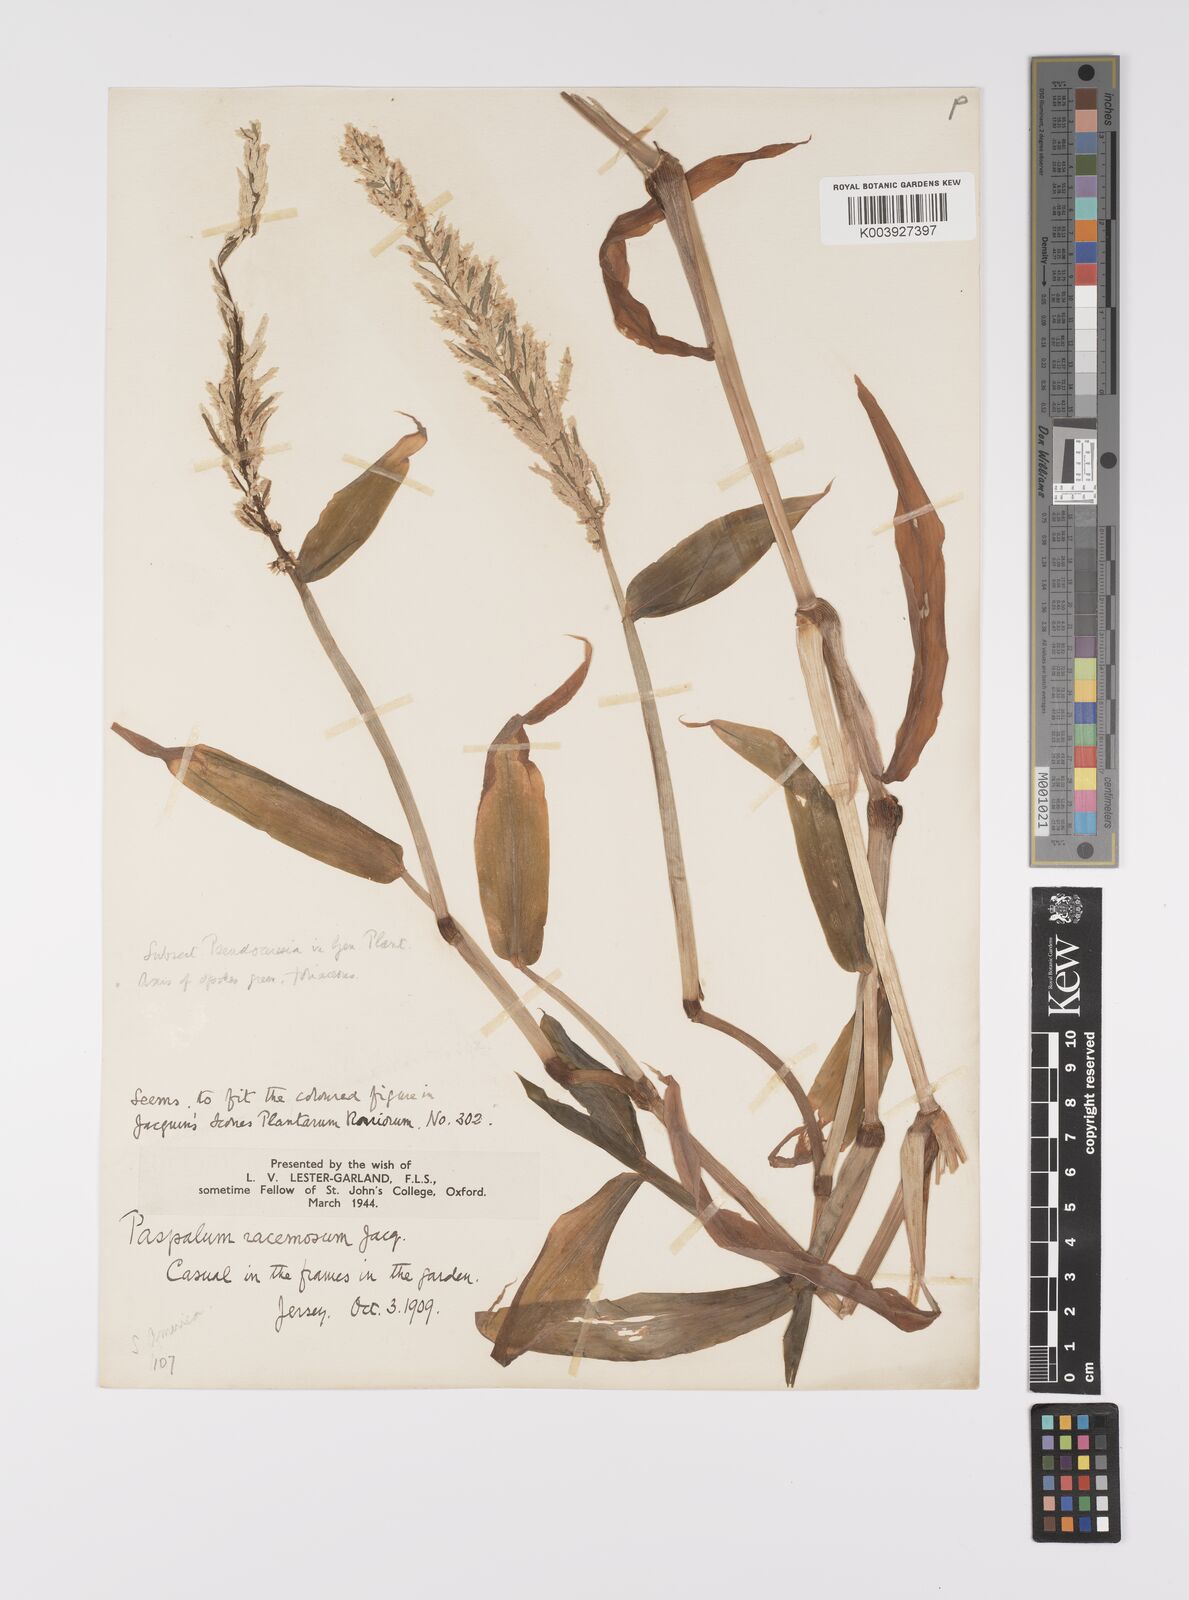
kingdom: Plantae
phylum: Tracheophyta
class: Liliopsida
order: Poales
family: Poaceae
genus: Paspalum
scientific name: Paspalum racemosum
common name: Peruvian paspalum
